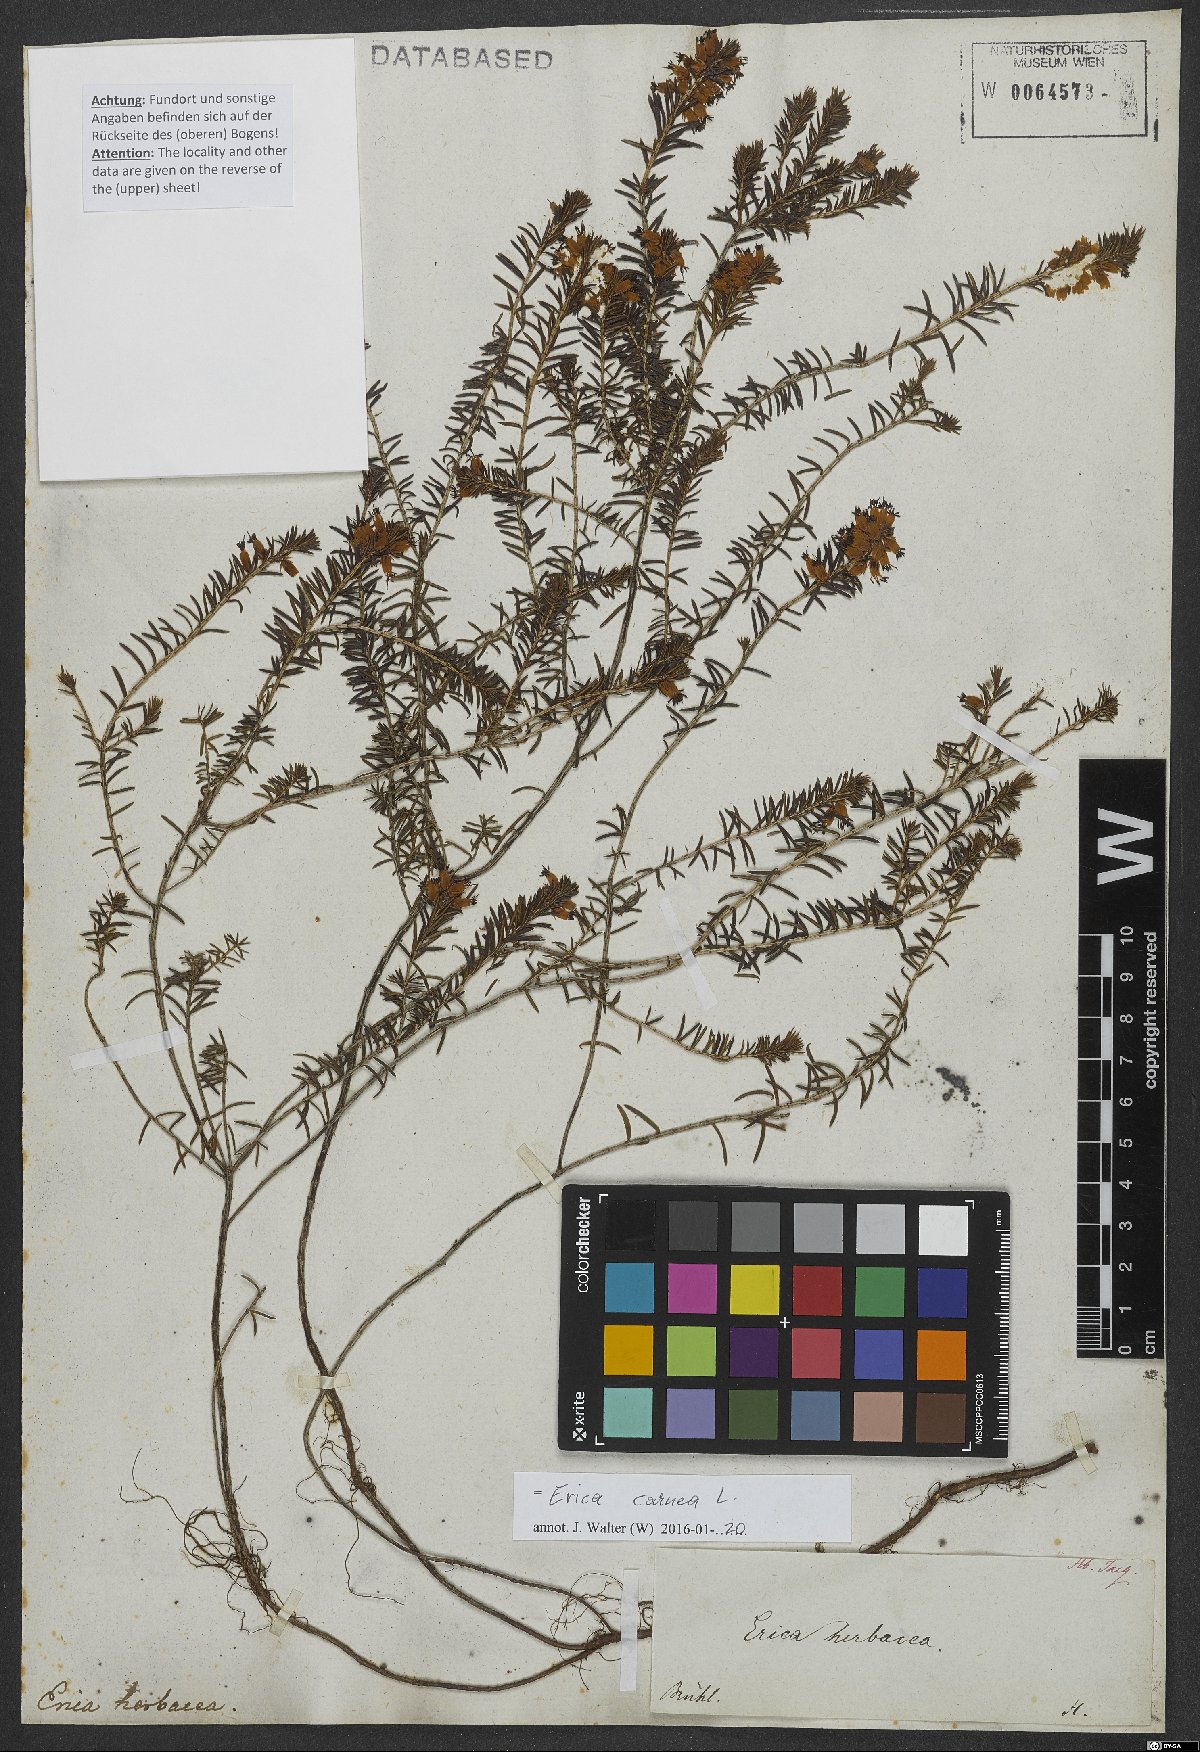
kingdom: Plantae
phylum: Tracheophyta
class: Magnoliopsida
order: Ericales
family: Ericaceae
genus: Erica
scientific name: Erica carnea
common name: Winter heath
